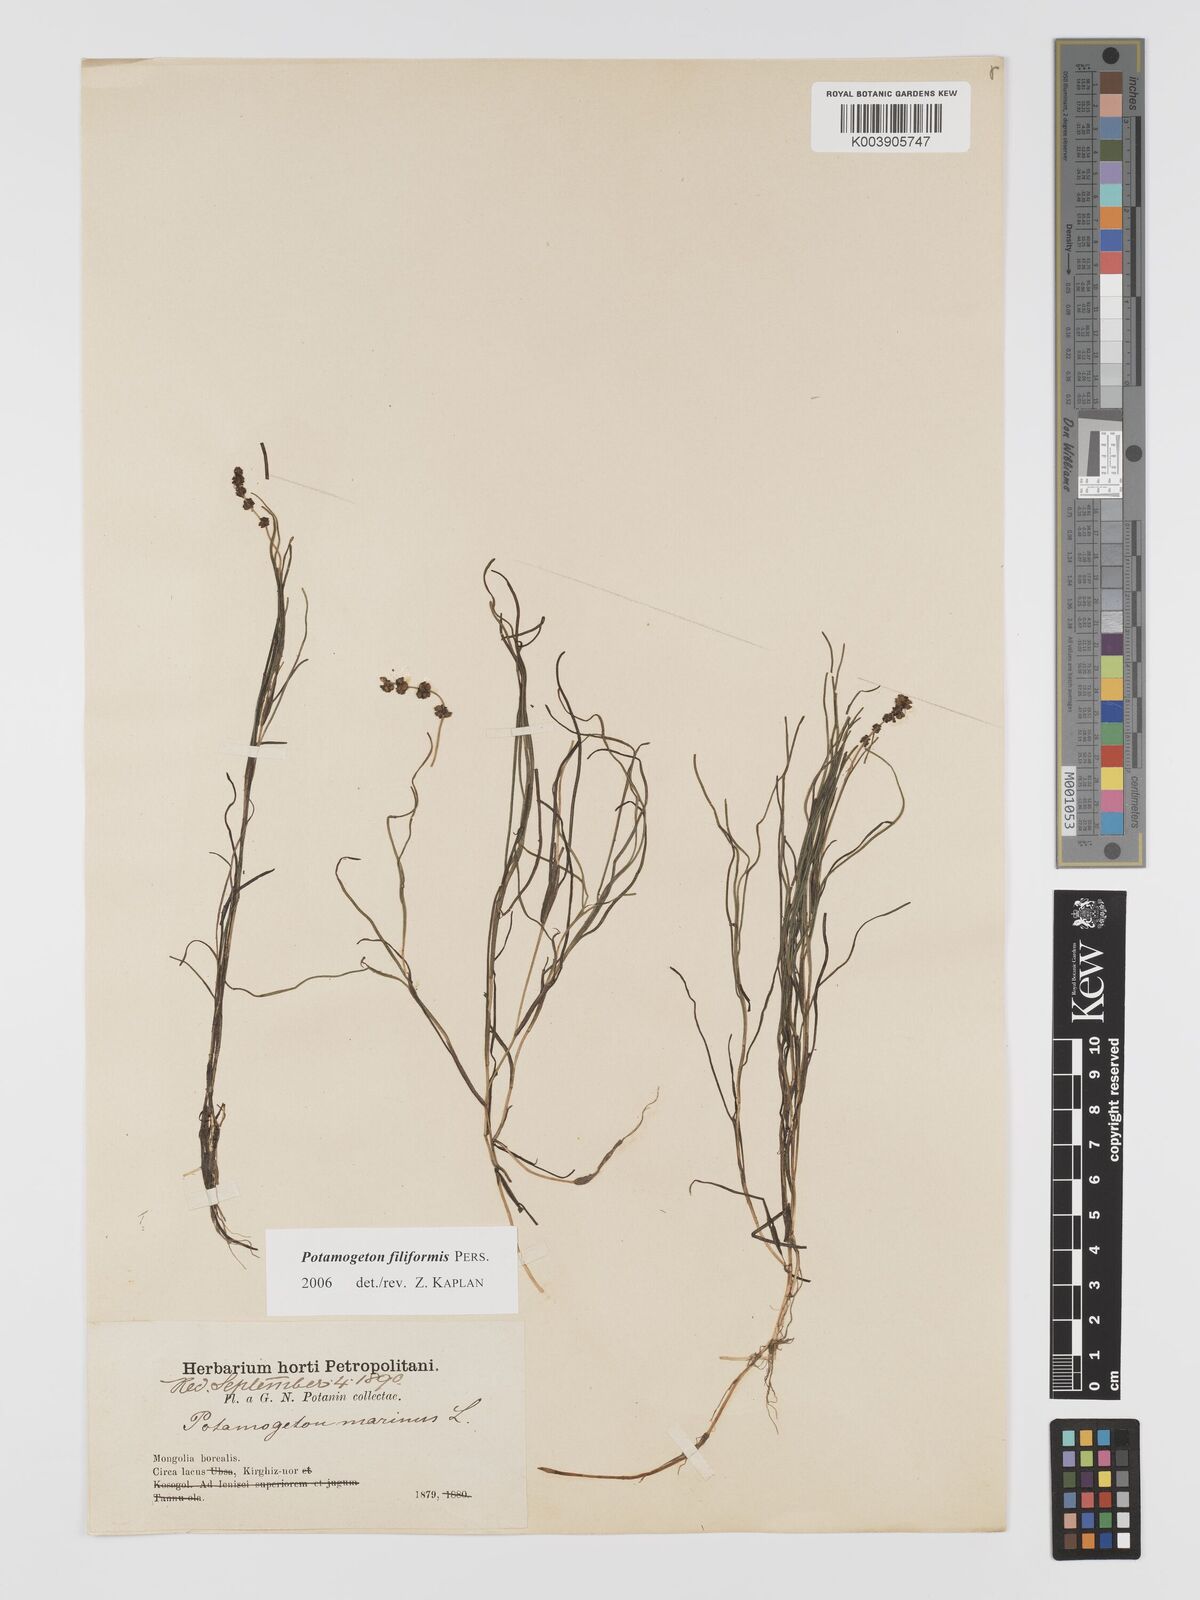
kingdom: Plantae
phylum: Tracheophyta
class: Liliopsida
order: Alismatales
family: Potamogetonaceae
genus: Potamogeton
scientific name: Potamogeton filiformis
